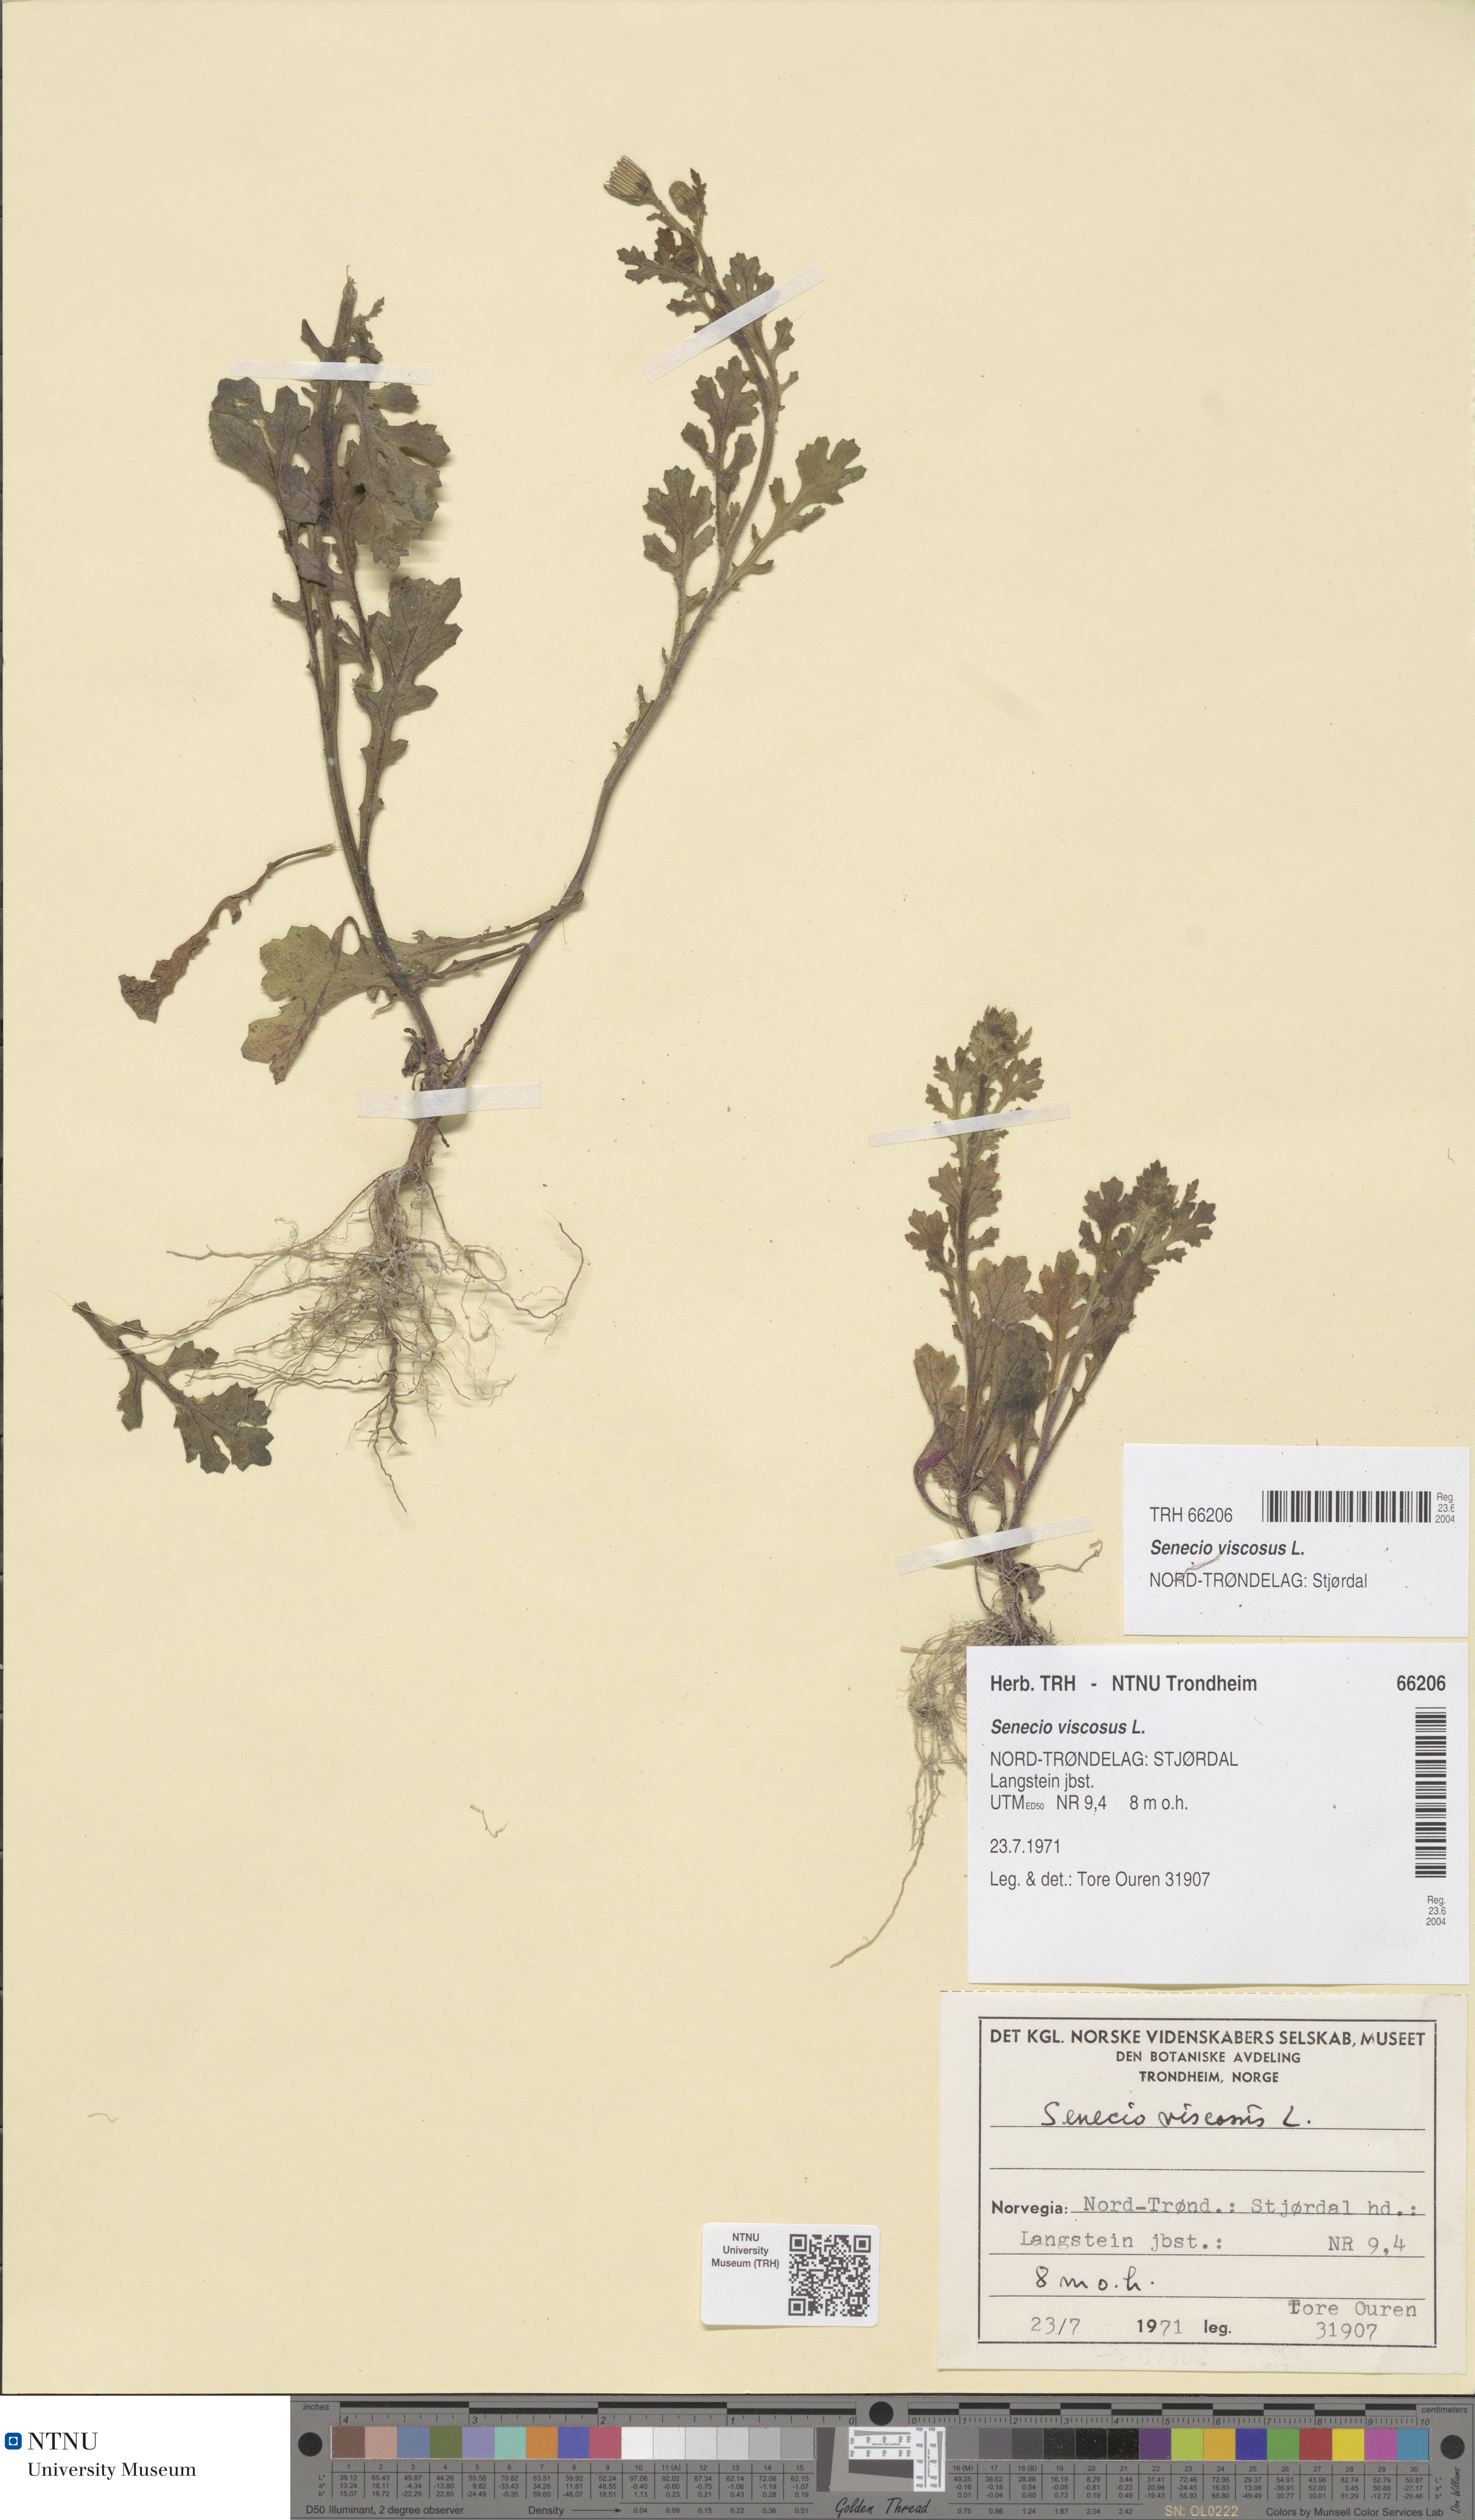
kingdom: Plantae
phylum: Tracheophyta
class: Magnoliopsida
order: Asterales
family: Asteraceae
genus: Senecio
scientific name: Senecio viscosus
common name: Sticky groundsel
